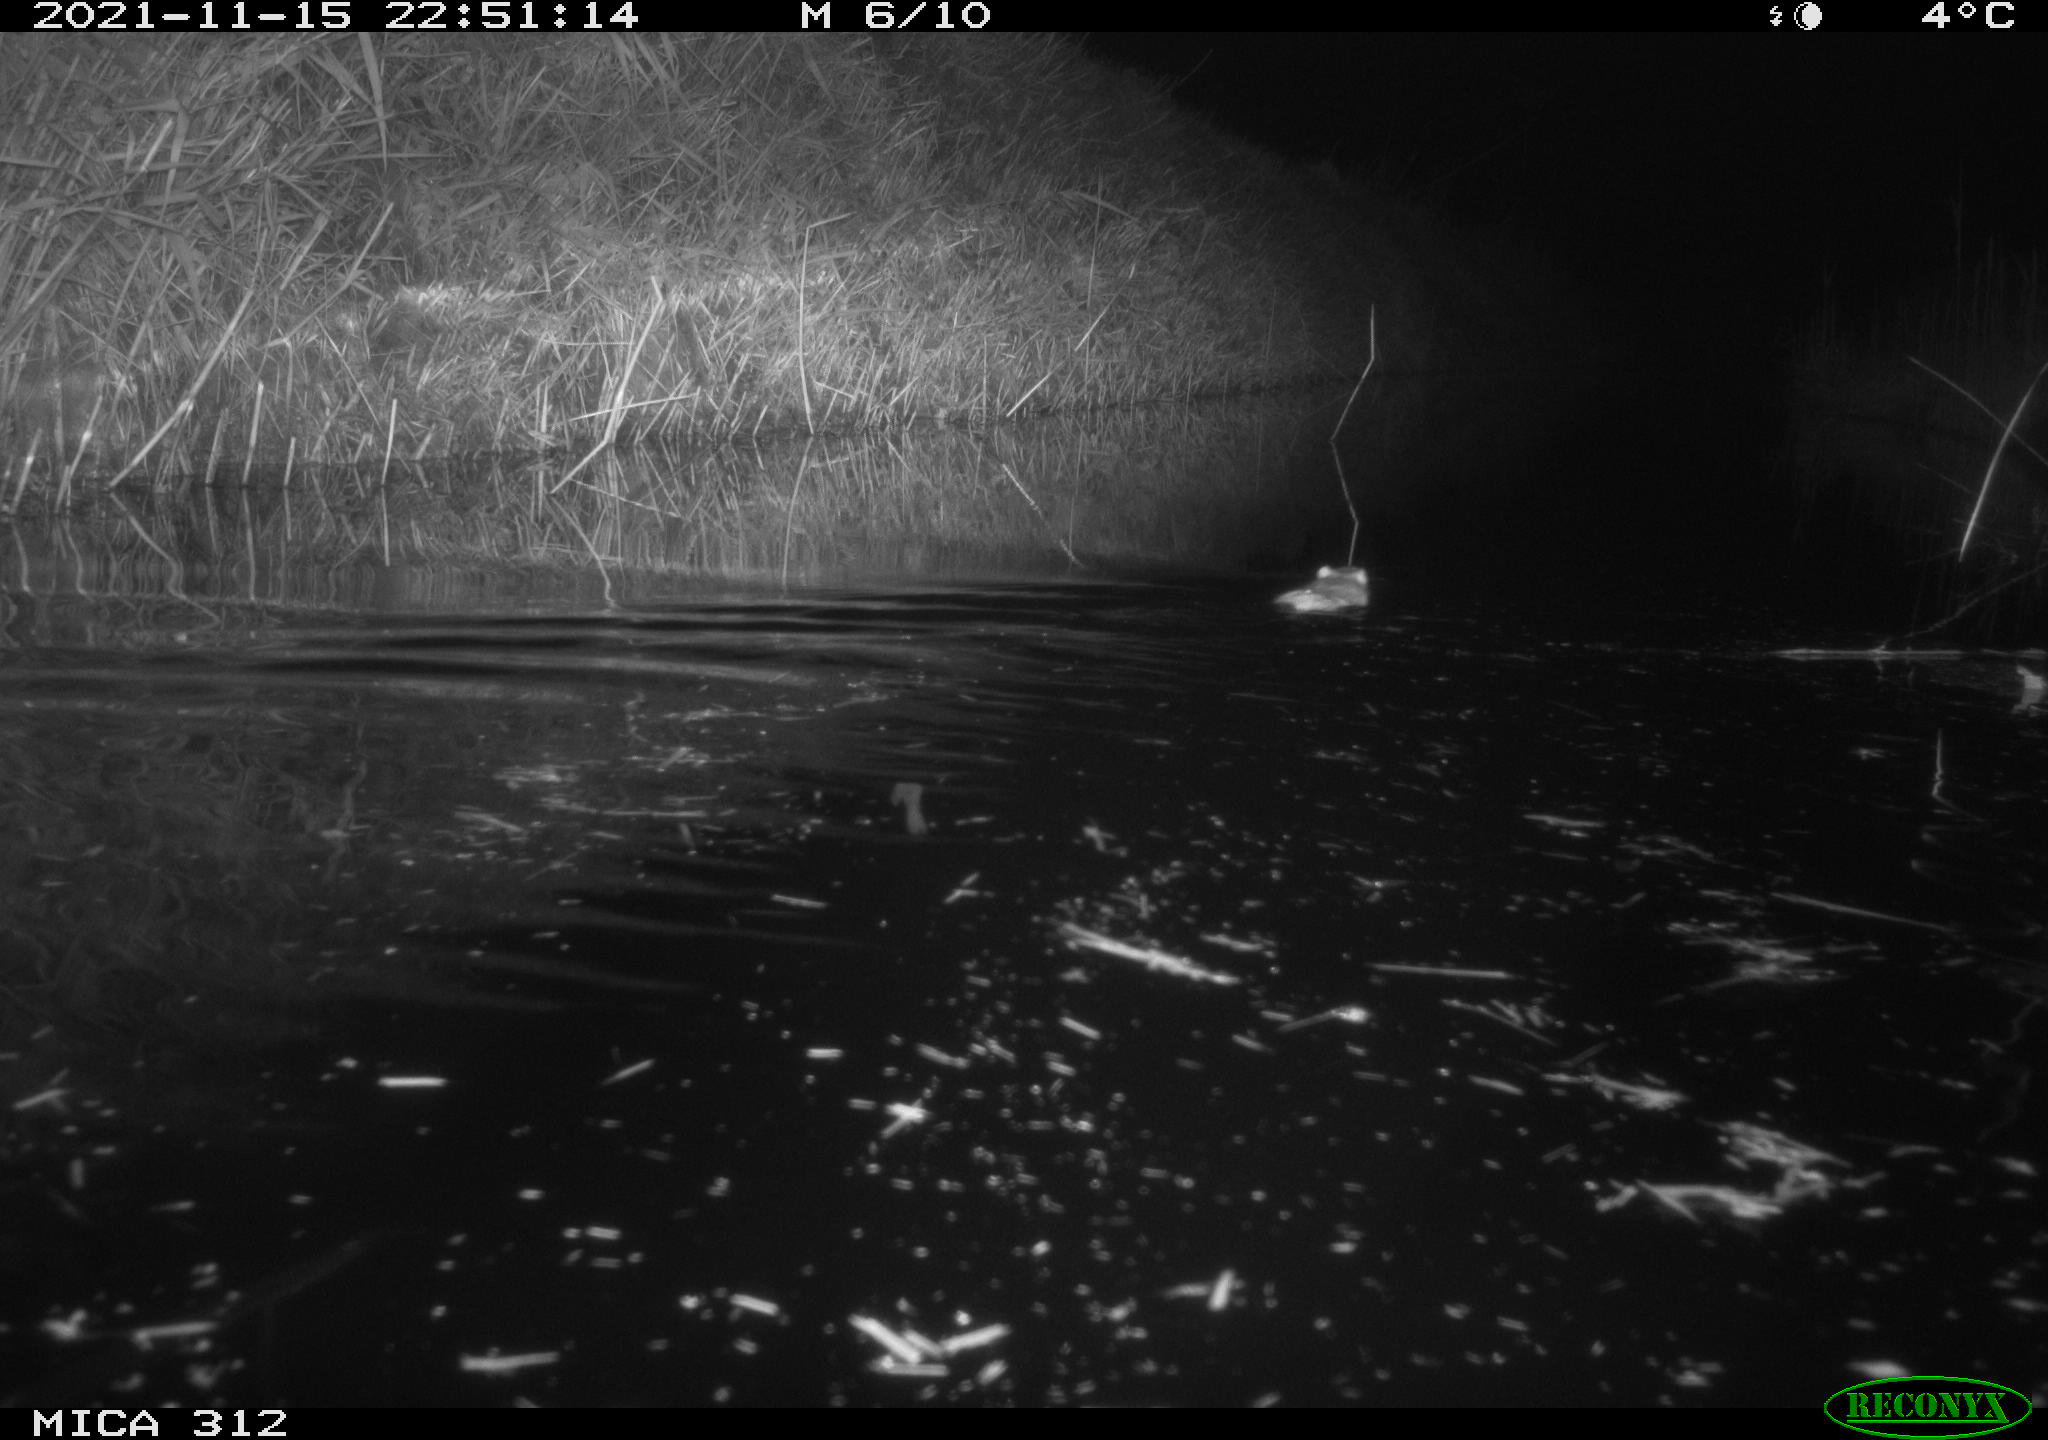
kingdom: Animalia
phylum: Chordata
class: Mammalia
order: Rodentia
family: Muridae
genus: Rattus
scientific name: Rattus norvegicus
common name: Brown rat
